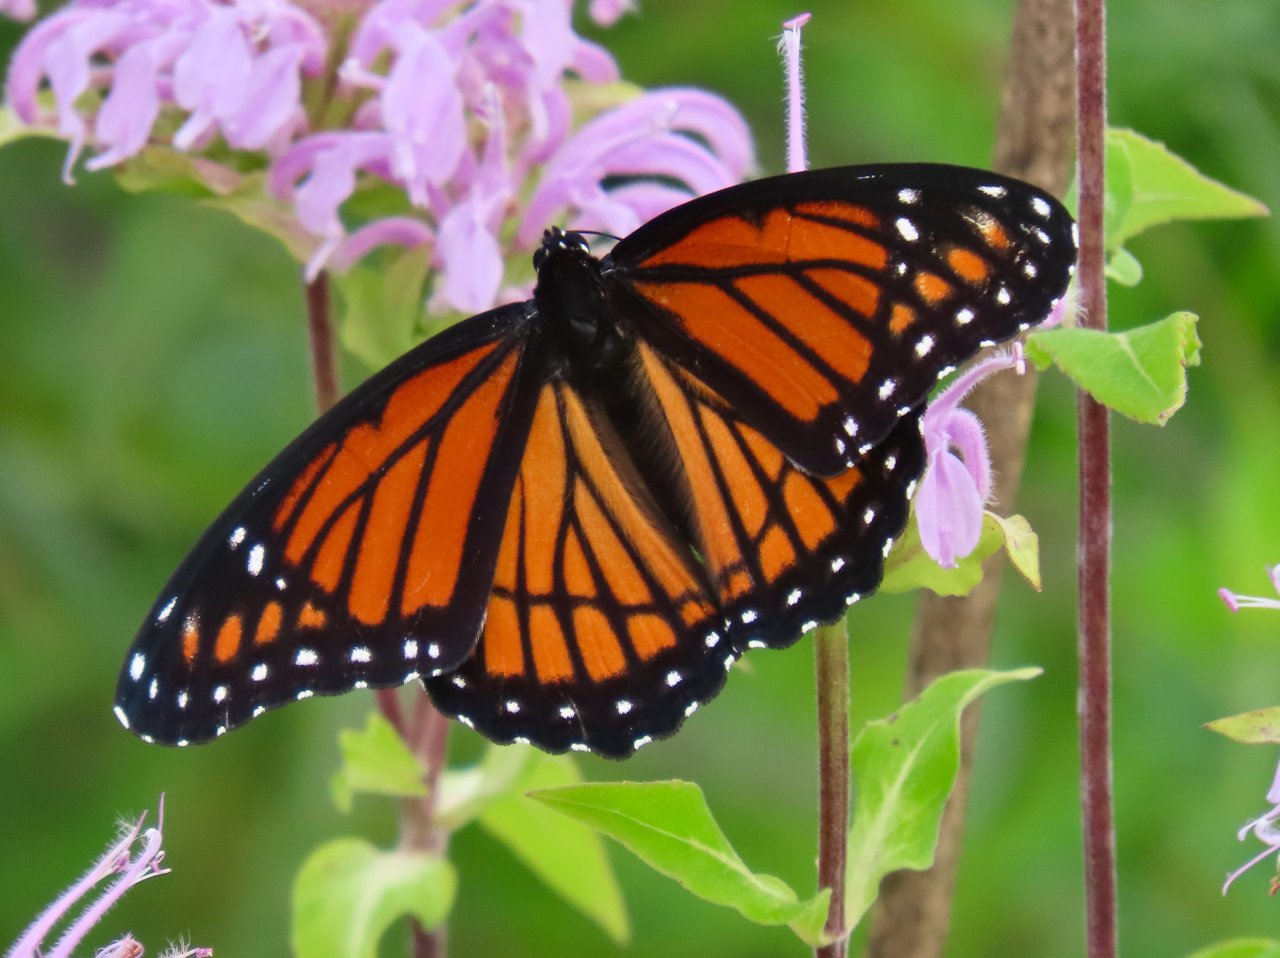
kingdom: Animalia
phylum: Arthropoda
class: Insecta
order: Lepidoptera
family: Nymphalidae
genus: Limenitis
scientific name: Limenitis archippus
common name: Viceroy
